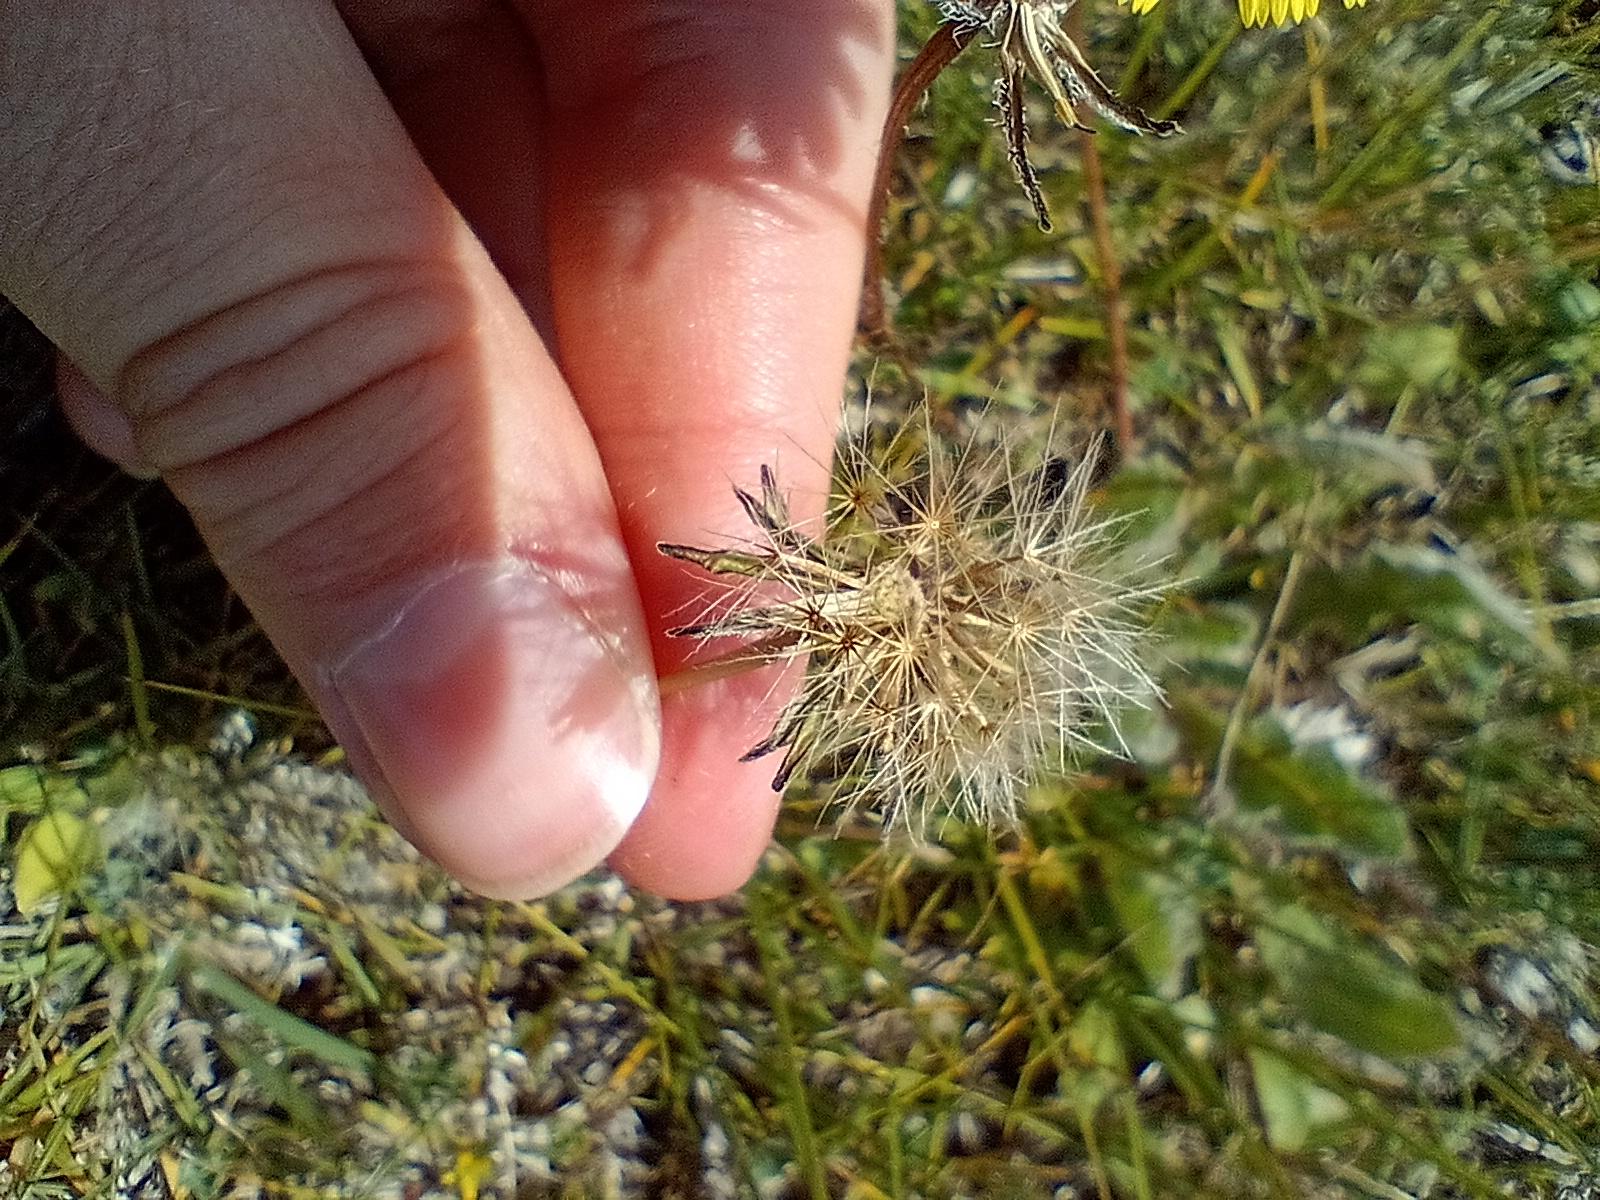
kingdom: Plantae
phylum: Tracheophyta
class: Magnoliopsida
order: Asterales
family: Asteraceae
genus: Thrincia
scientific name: Thrincia saxatilis
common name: Hundesalat
